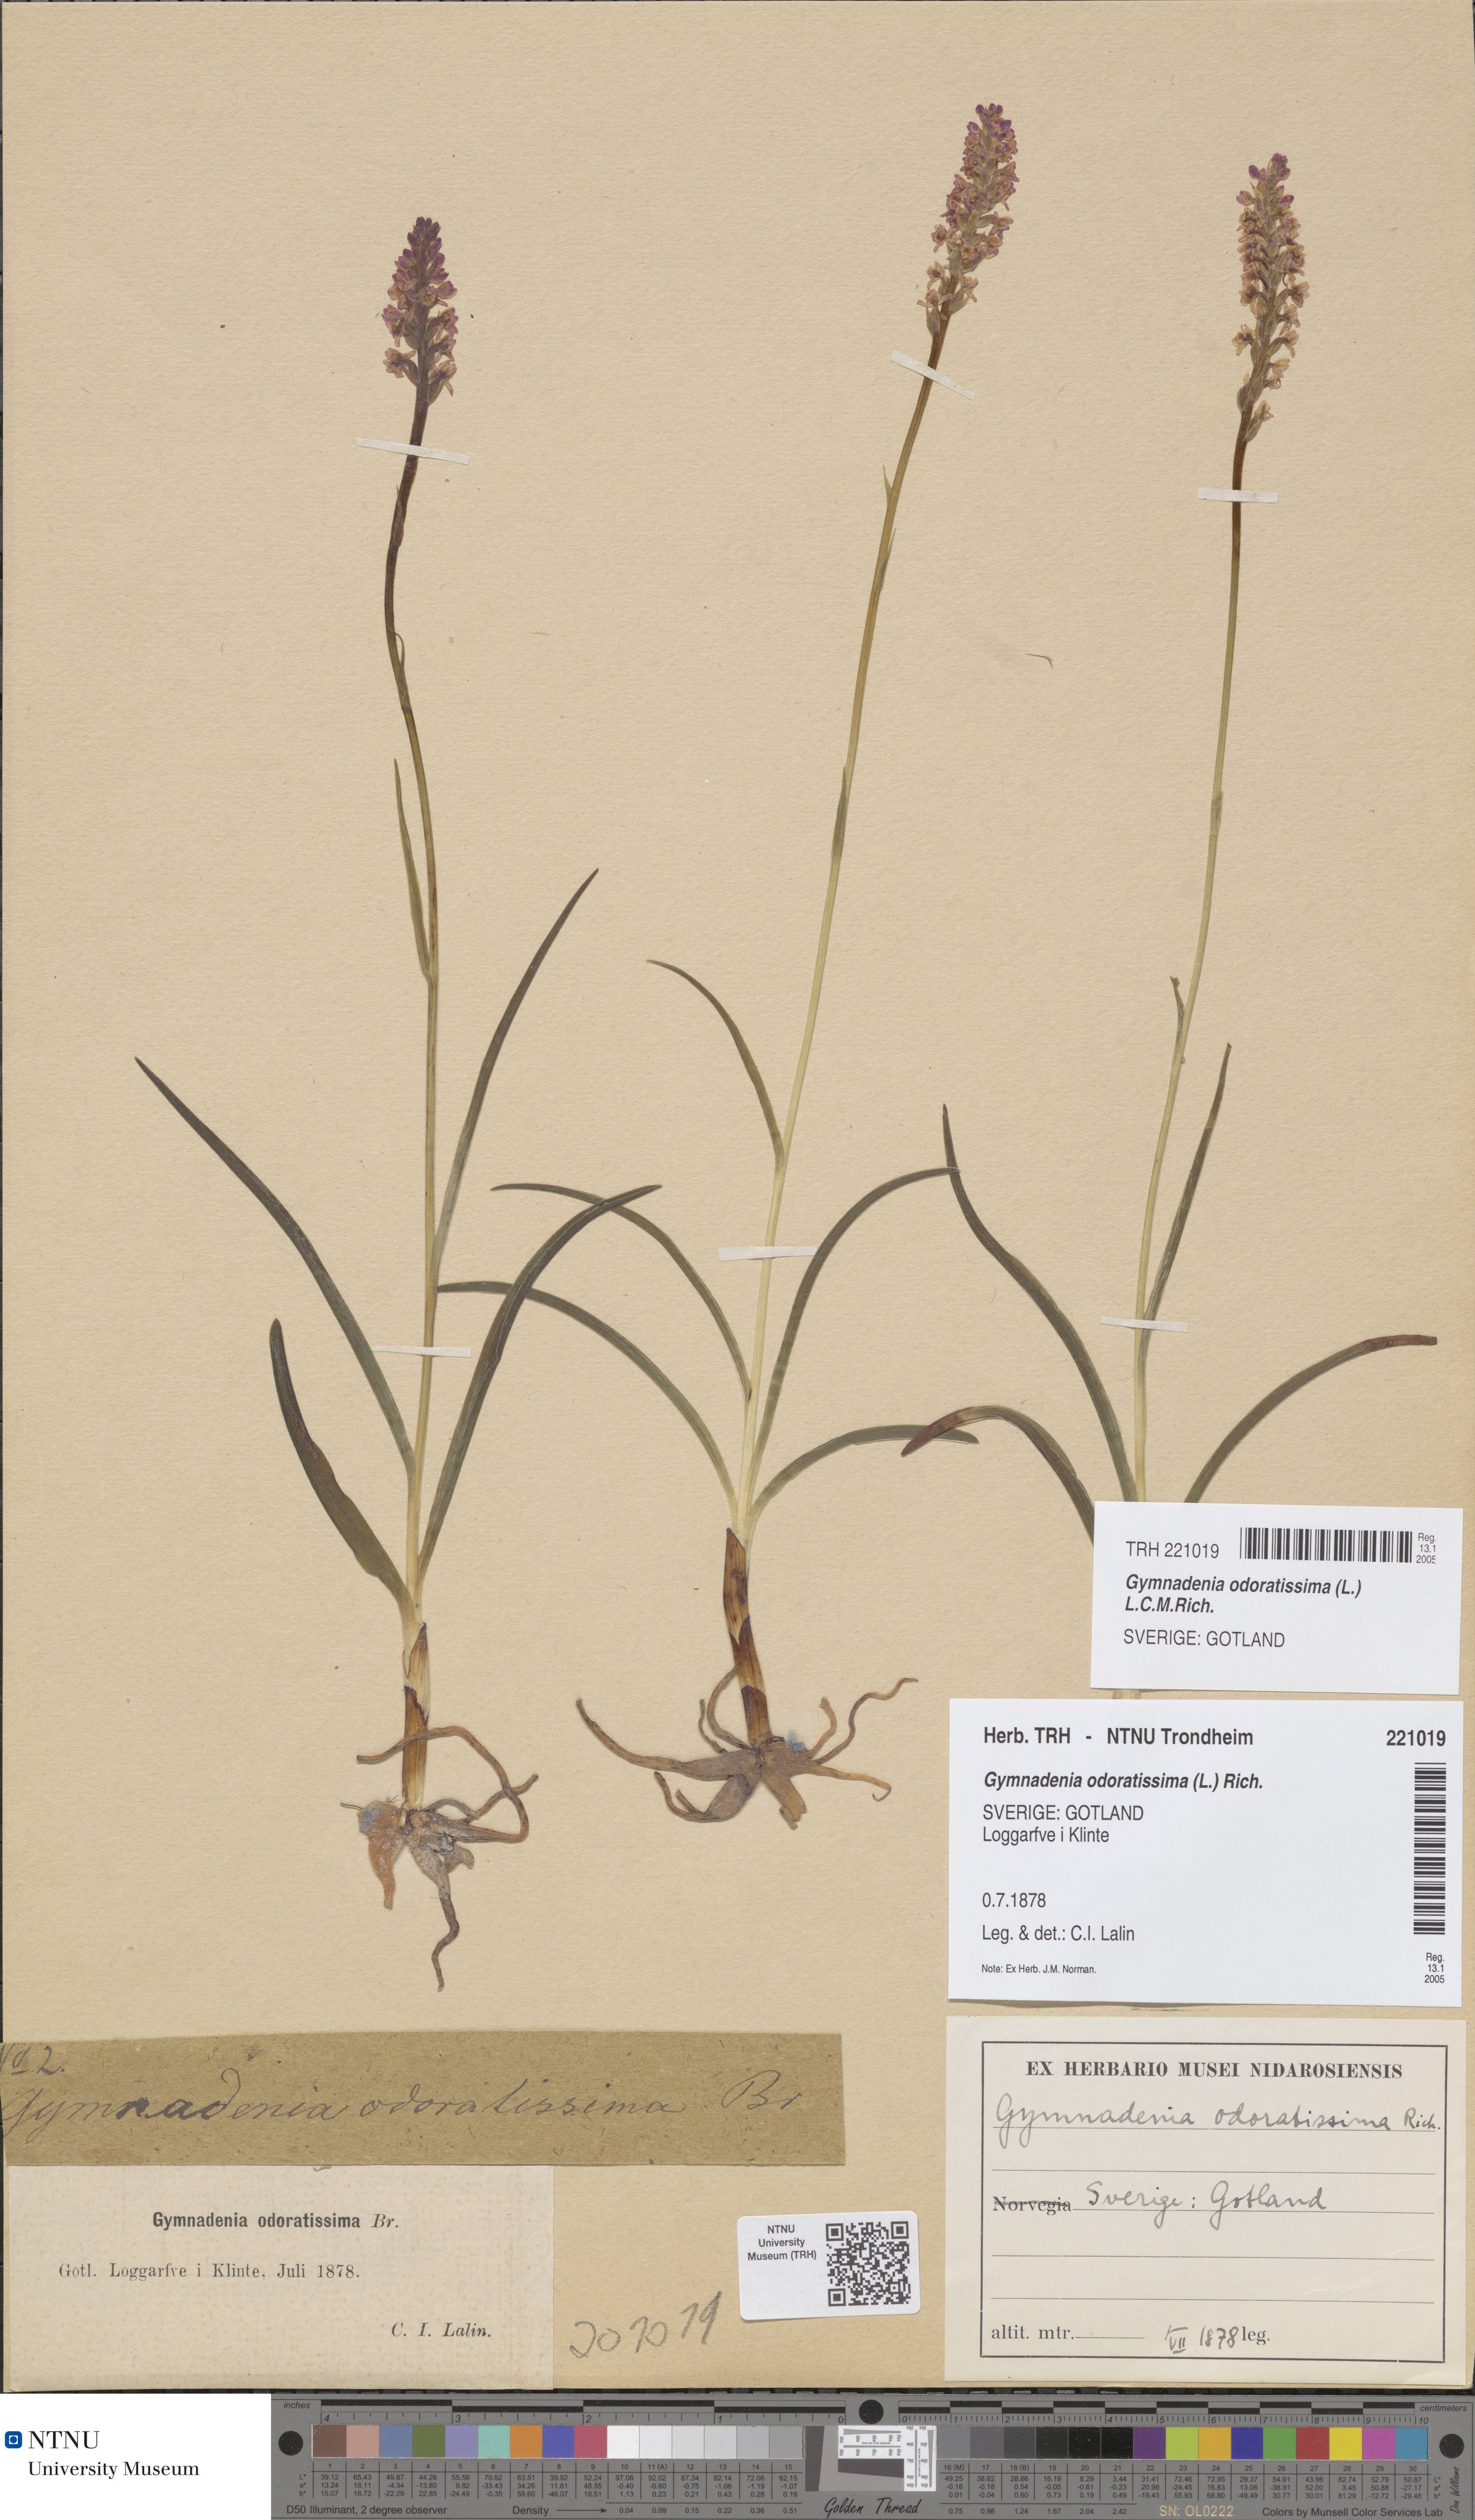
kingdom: Plantae
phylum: Tracheophyta
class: Liliopsida
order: Asparagales
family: Orchidaceae
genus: Gymnadenia
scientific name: Gymnadenia odoratissima
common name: Scented gymnadenia
